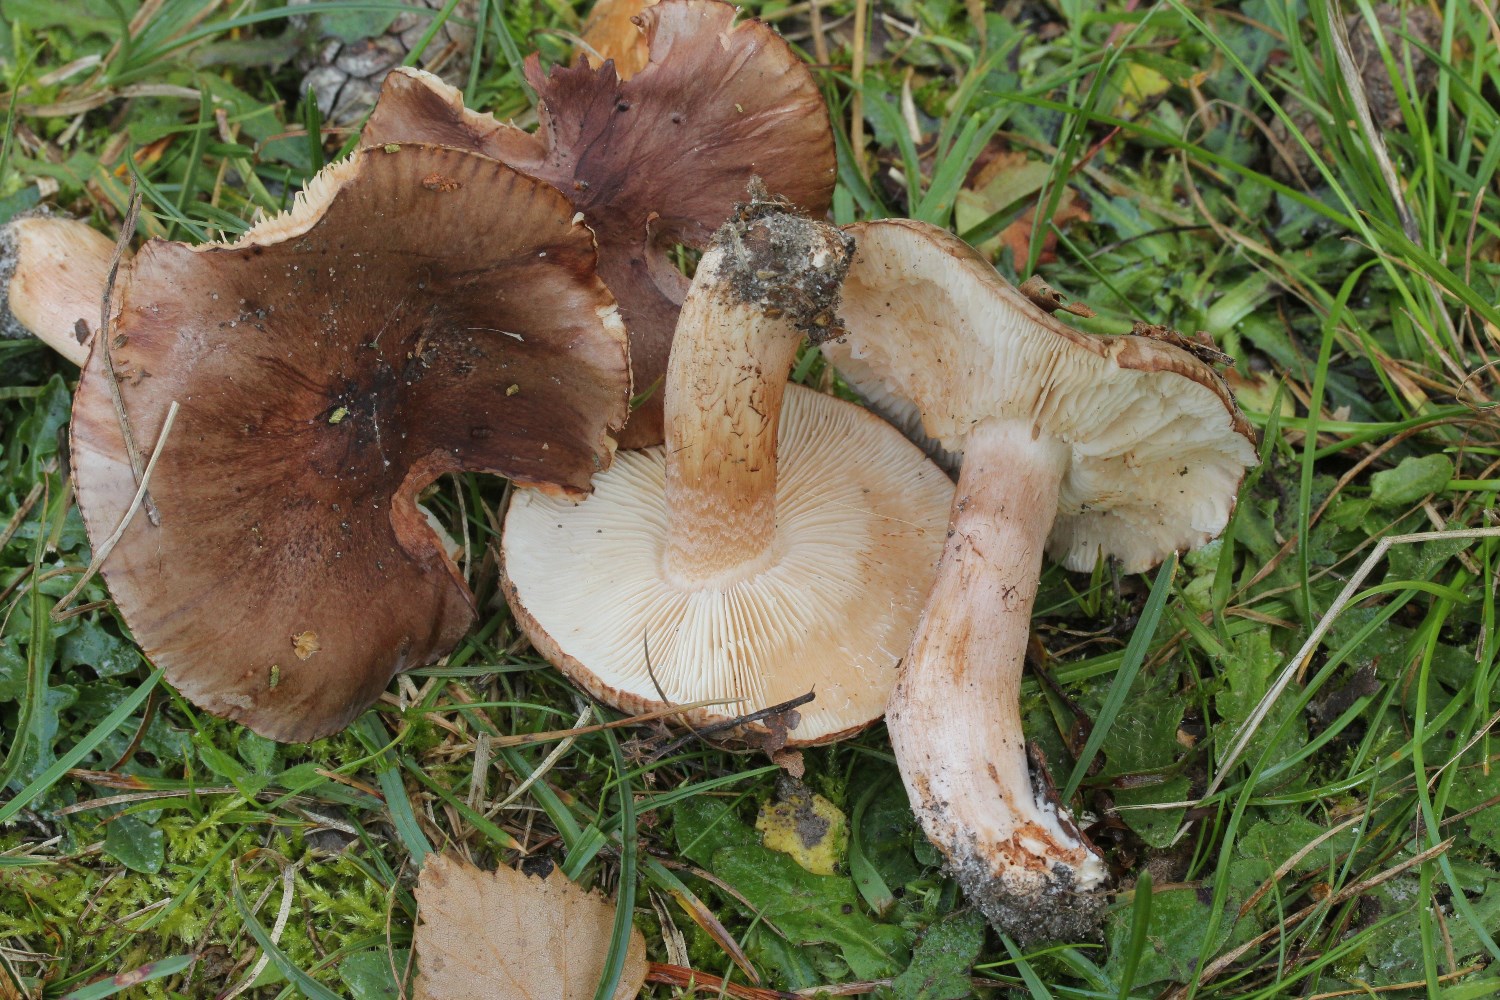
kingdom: Fungi
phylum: Basidiomycota
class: Agaricomycetes
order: Agaricales
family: Tricholomataceae
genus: Tricholoma
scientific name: Tricholoma albobrunneum
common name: kastanie-ridderhat
